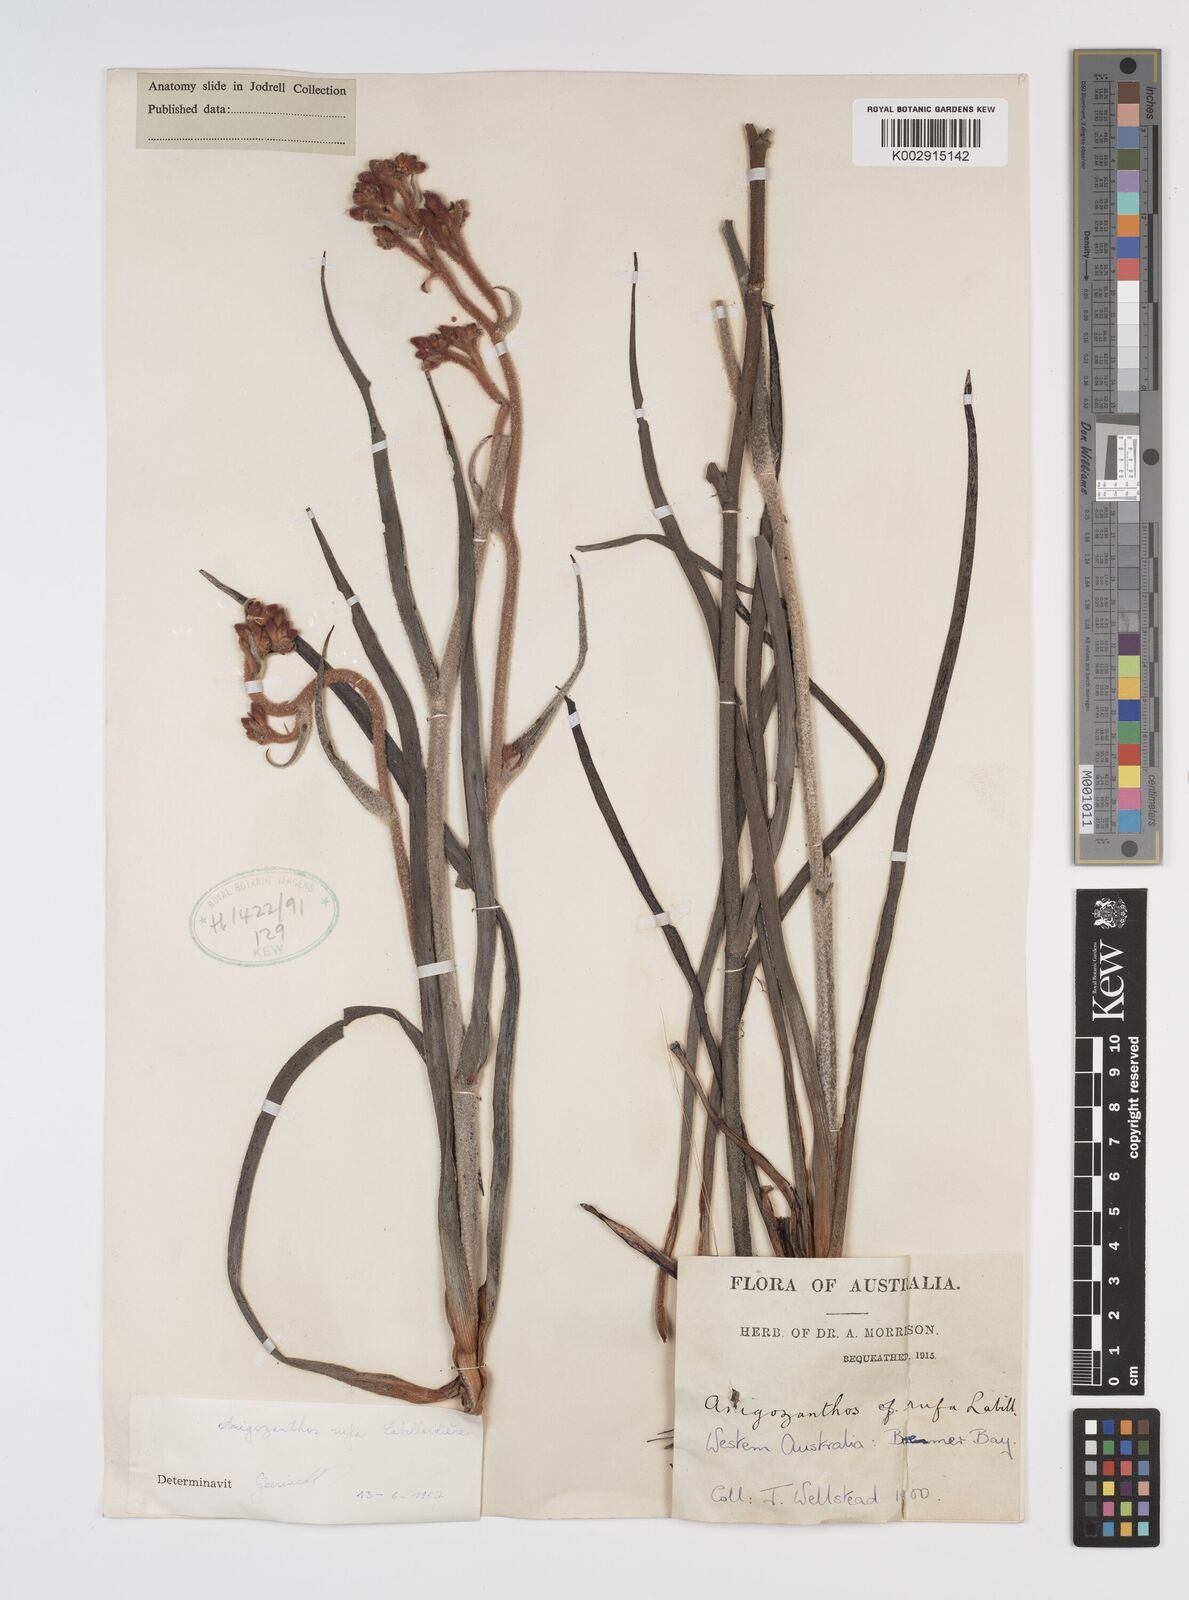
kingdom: Plantae
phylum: Tracheophyta
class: Liliopsida
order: Commelinales
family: Haemodoraceae
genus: Anigozanthos
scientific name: Anigozanthos rufus
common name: Red kangaroo-paw
